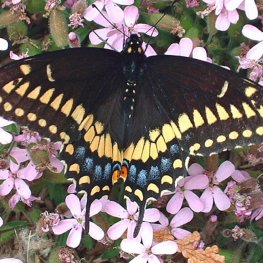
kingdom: Animalia
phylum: Arthropoda
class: Insecta
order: Lepidoptera
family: Papilionidae
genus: Papilio
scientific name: Papilio polyxenes
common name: Black Swallowtail
